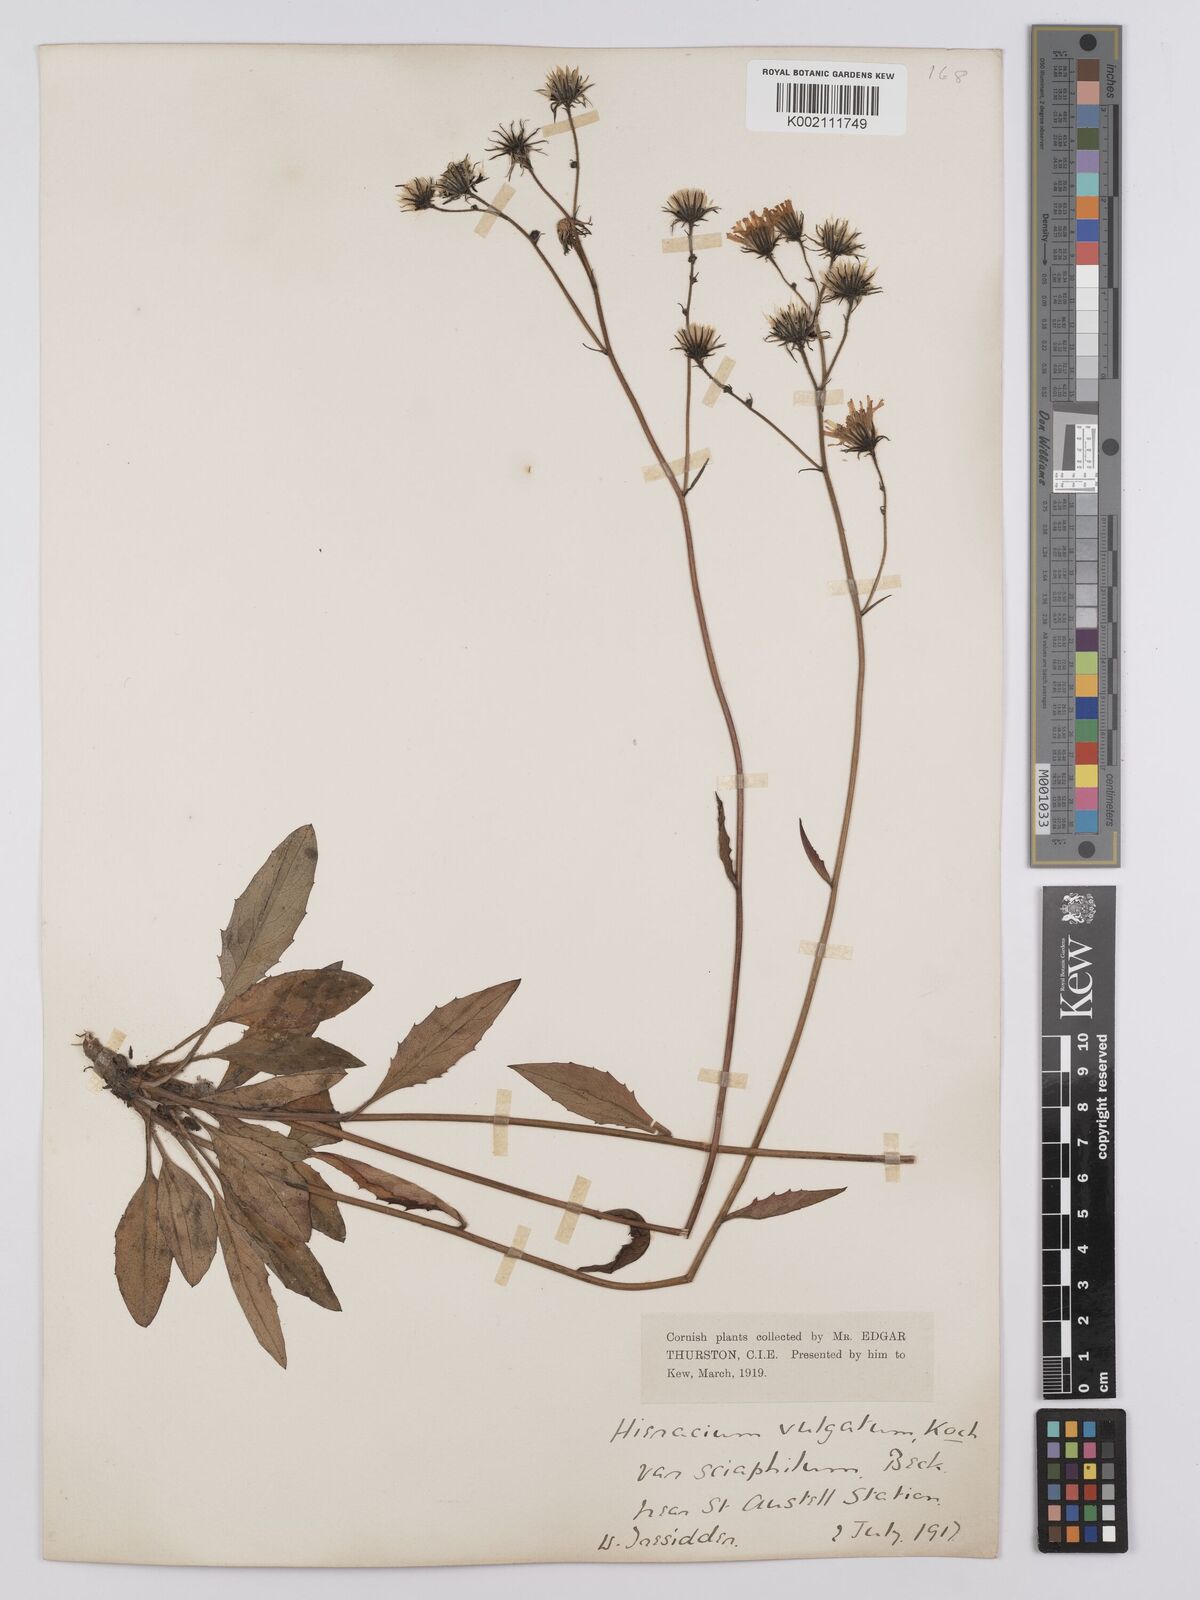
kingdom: Plantae
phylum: Tracheophyta
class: Magnoliopsida
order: Asterales
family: Asteraceae
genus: Hieracium
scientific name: Hieracium lachenalii
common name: Common hawkweed
